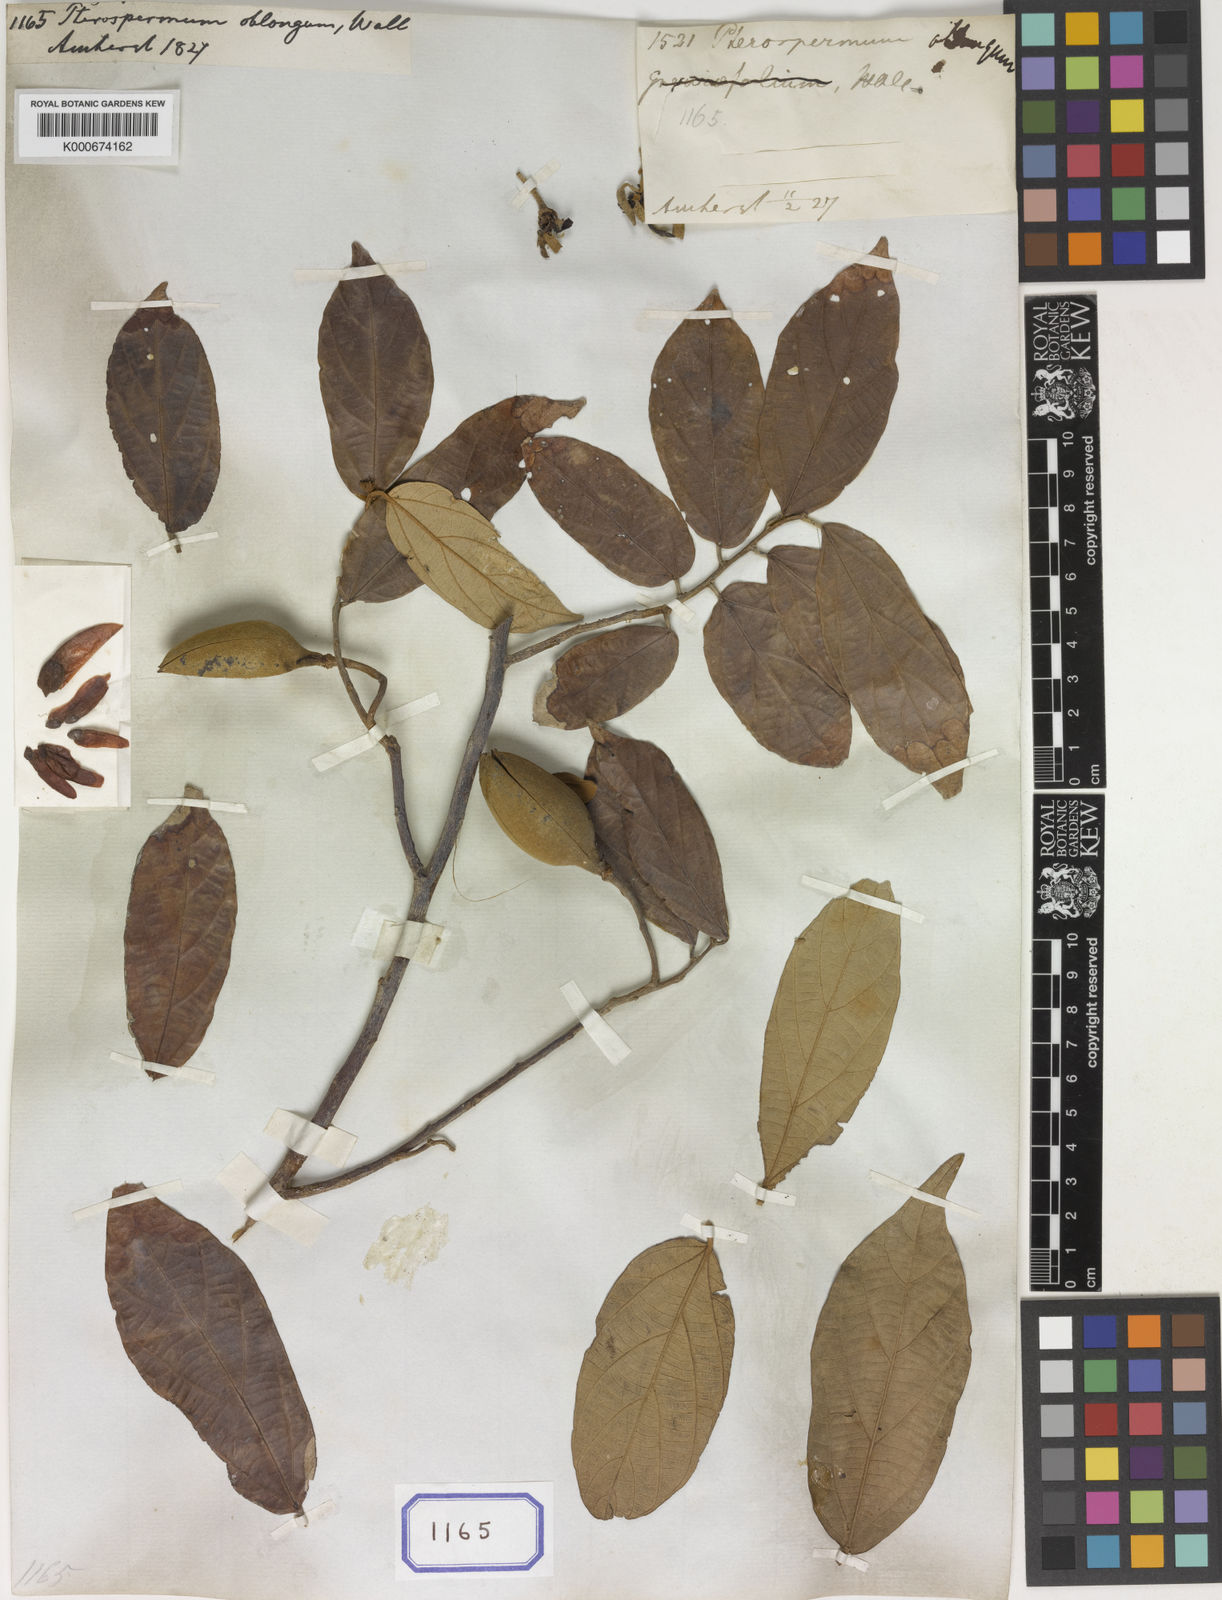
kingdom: Plantae
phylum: Tracheophyta
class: Magnoliopsida
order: Malvales
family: Malvaceae
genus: Pterospermum
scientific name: Pterospermum suberifolium
